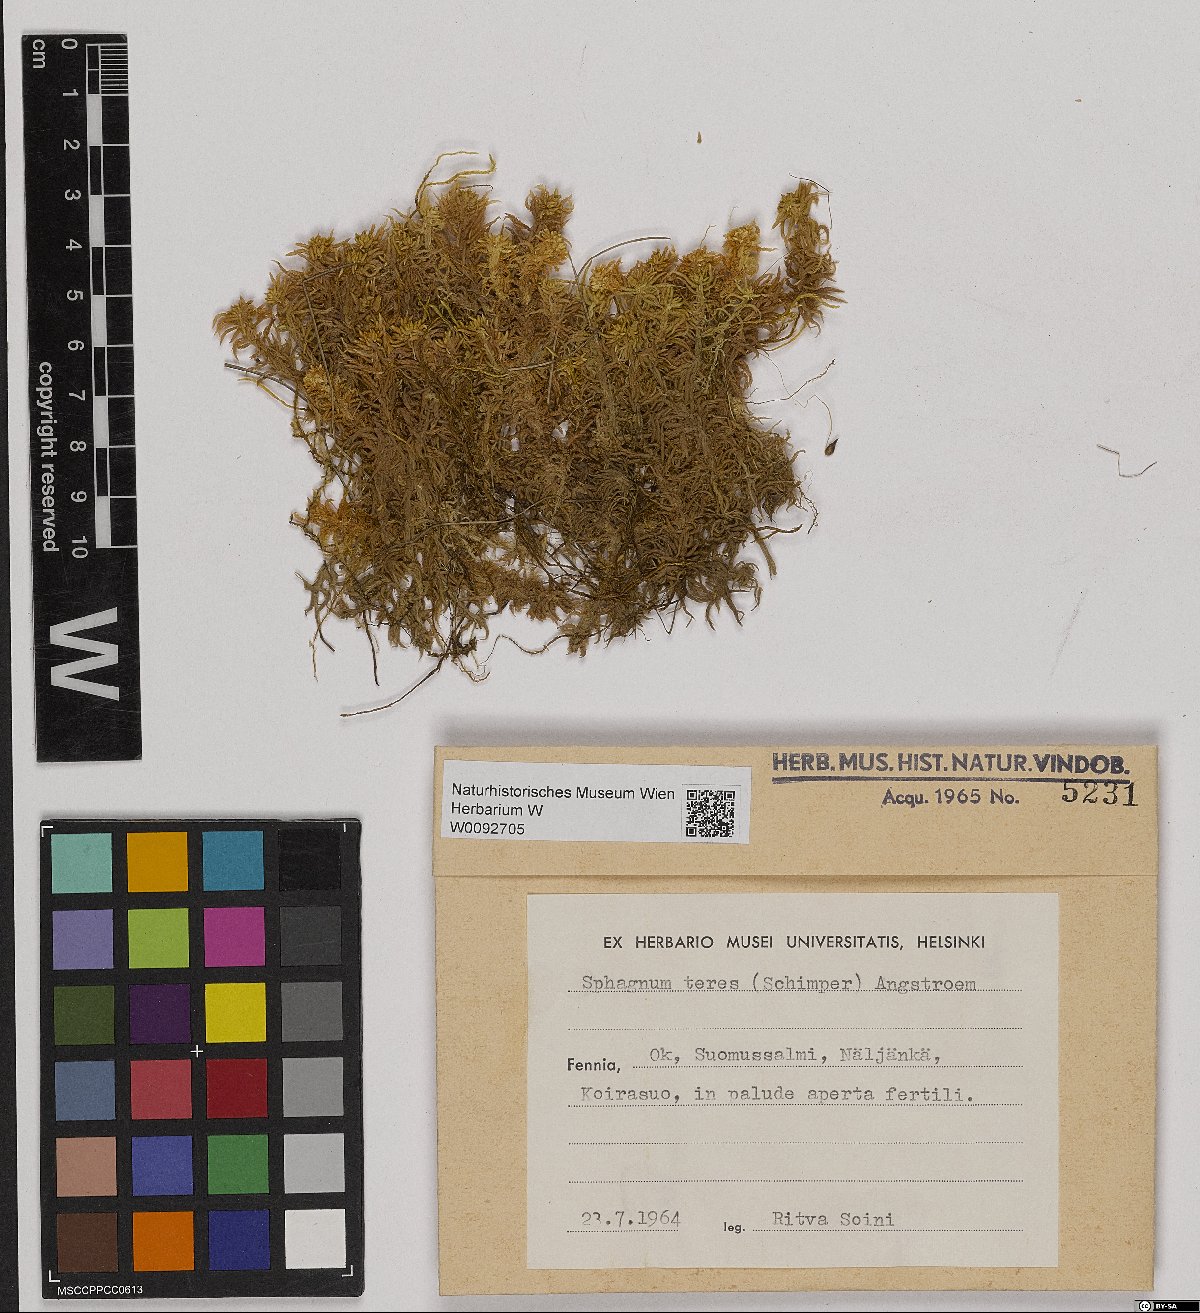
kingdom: Plantae
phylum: Bryophyta
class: Sphagnopsida
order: Sphagnales
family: Sphagnaceae
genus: Sphagnum
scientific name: Sphagnum teres
